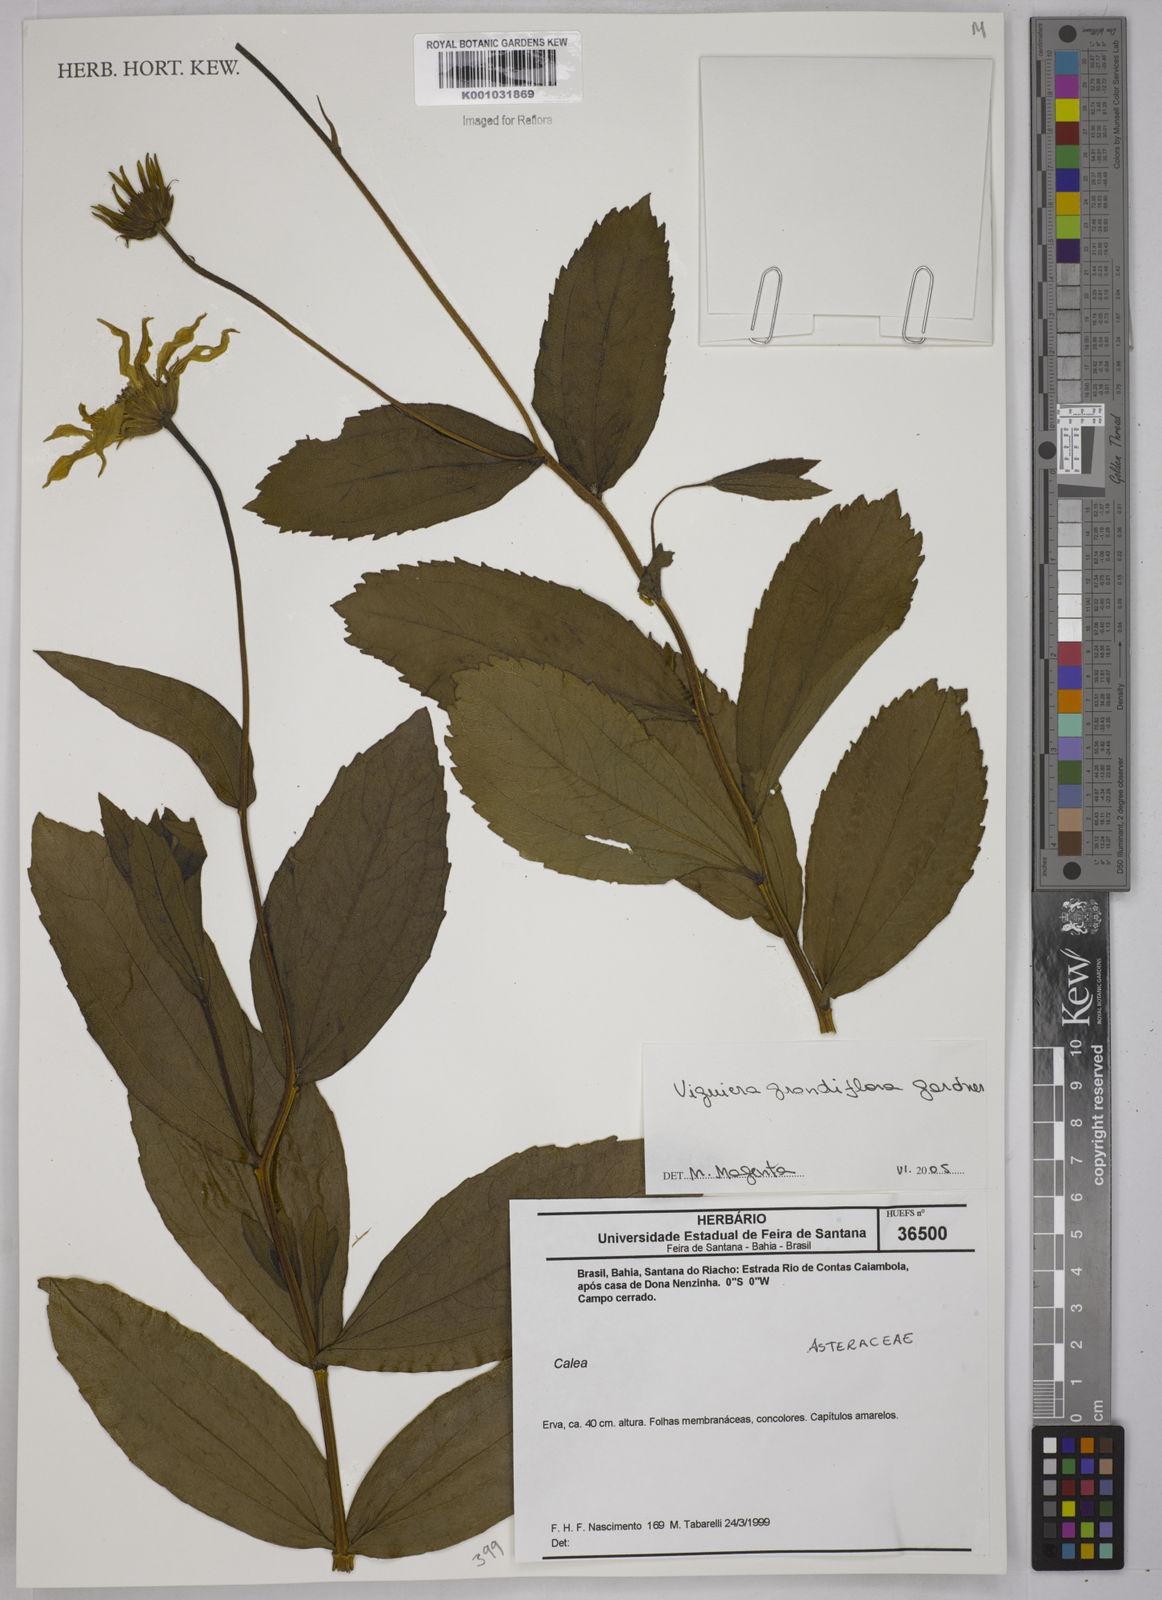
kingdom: Plantae
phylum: Tracheophyta
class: Magnoliopsida
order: Asterales
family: Asteraceae
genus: Aldama
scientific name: Aldama grandiflora
